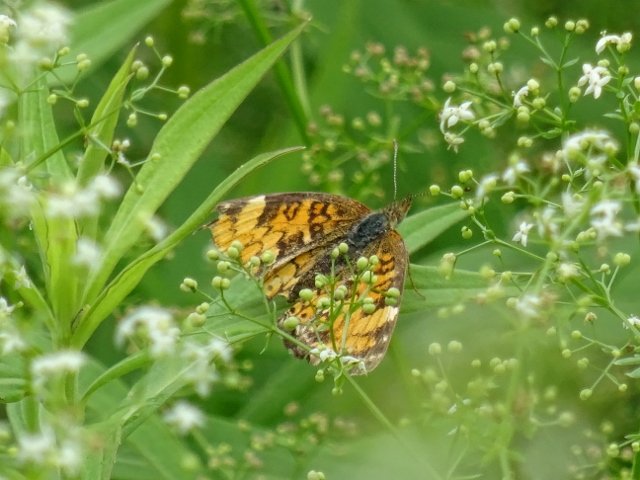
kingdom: Animalia
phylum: Arthropoda
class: Insecta
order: Lepidoptera
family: Nymphalidae
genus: Phyciodes
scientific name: Phyciodes tharos
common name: Pearl Crescent
